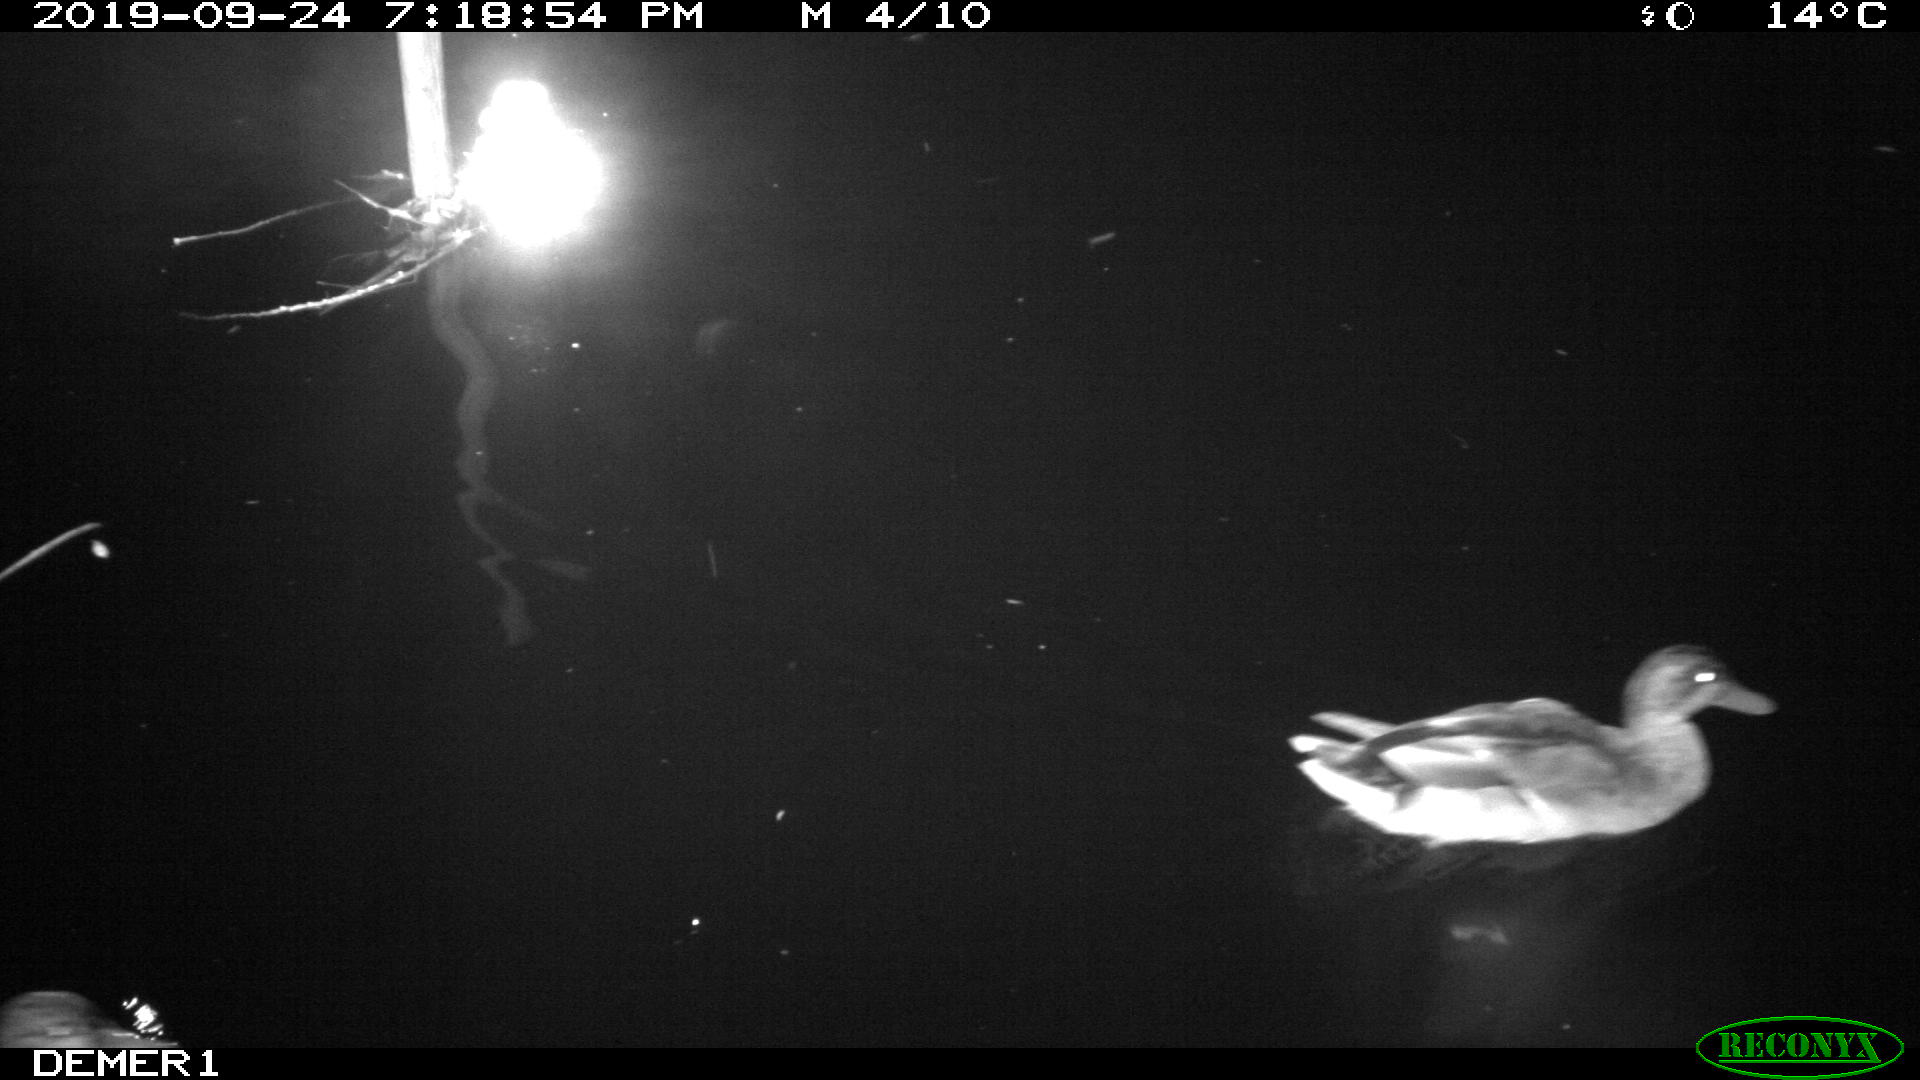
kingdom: Animalia
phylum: Chordata
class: Aves
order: Anseriformes
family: Anatidae
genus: Anas
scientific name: Anas platyrhynchos
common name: Mallard
